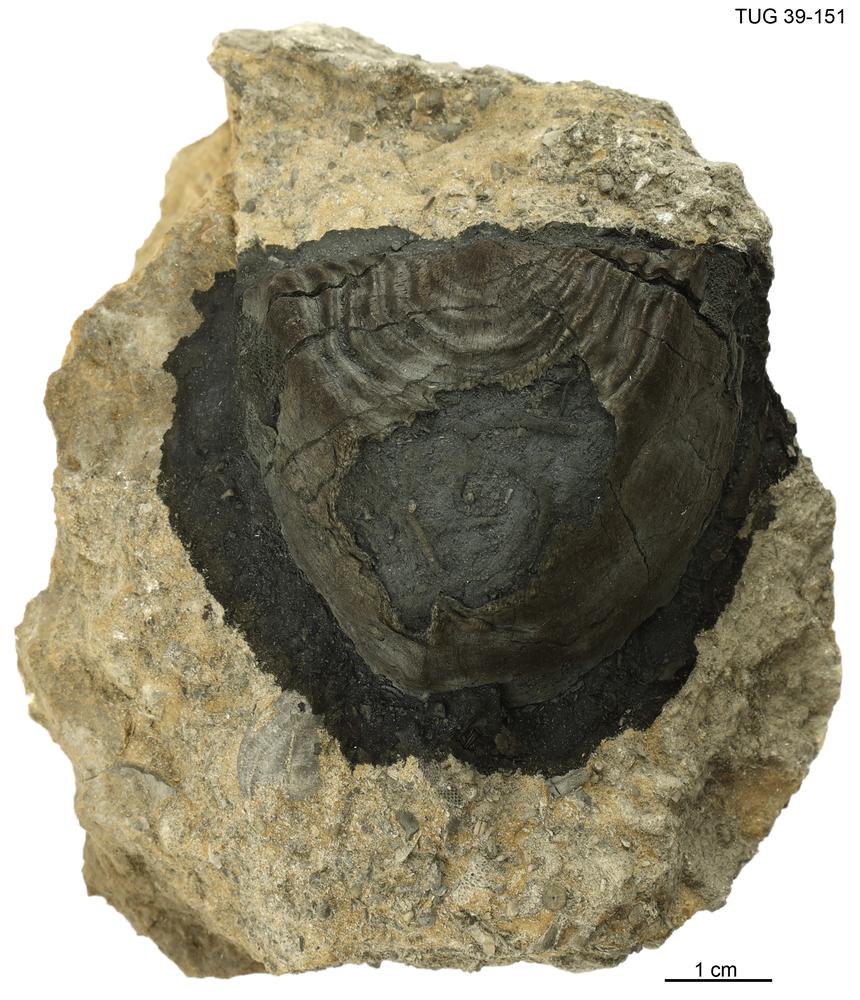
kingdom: Animalia
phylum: Brachiopoda
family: Rafinesquinidae
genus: Kiaeromena
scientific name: Kiaeromena Leptaena estonensis
